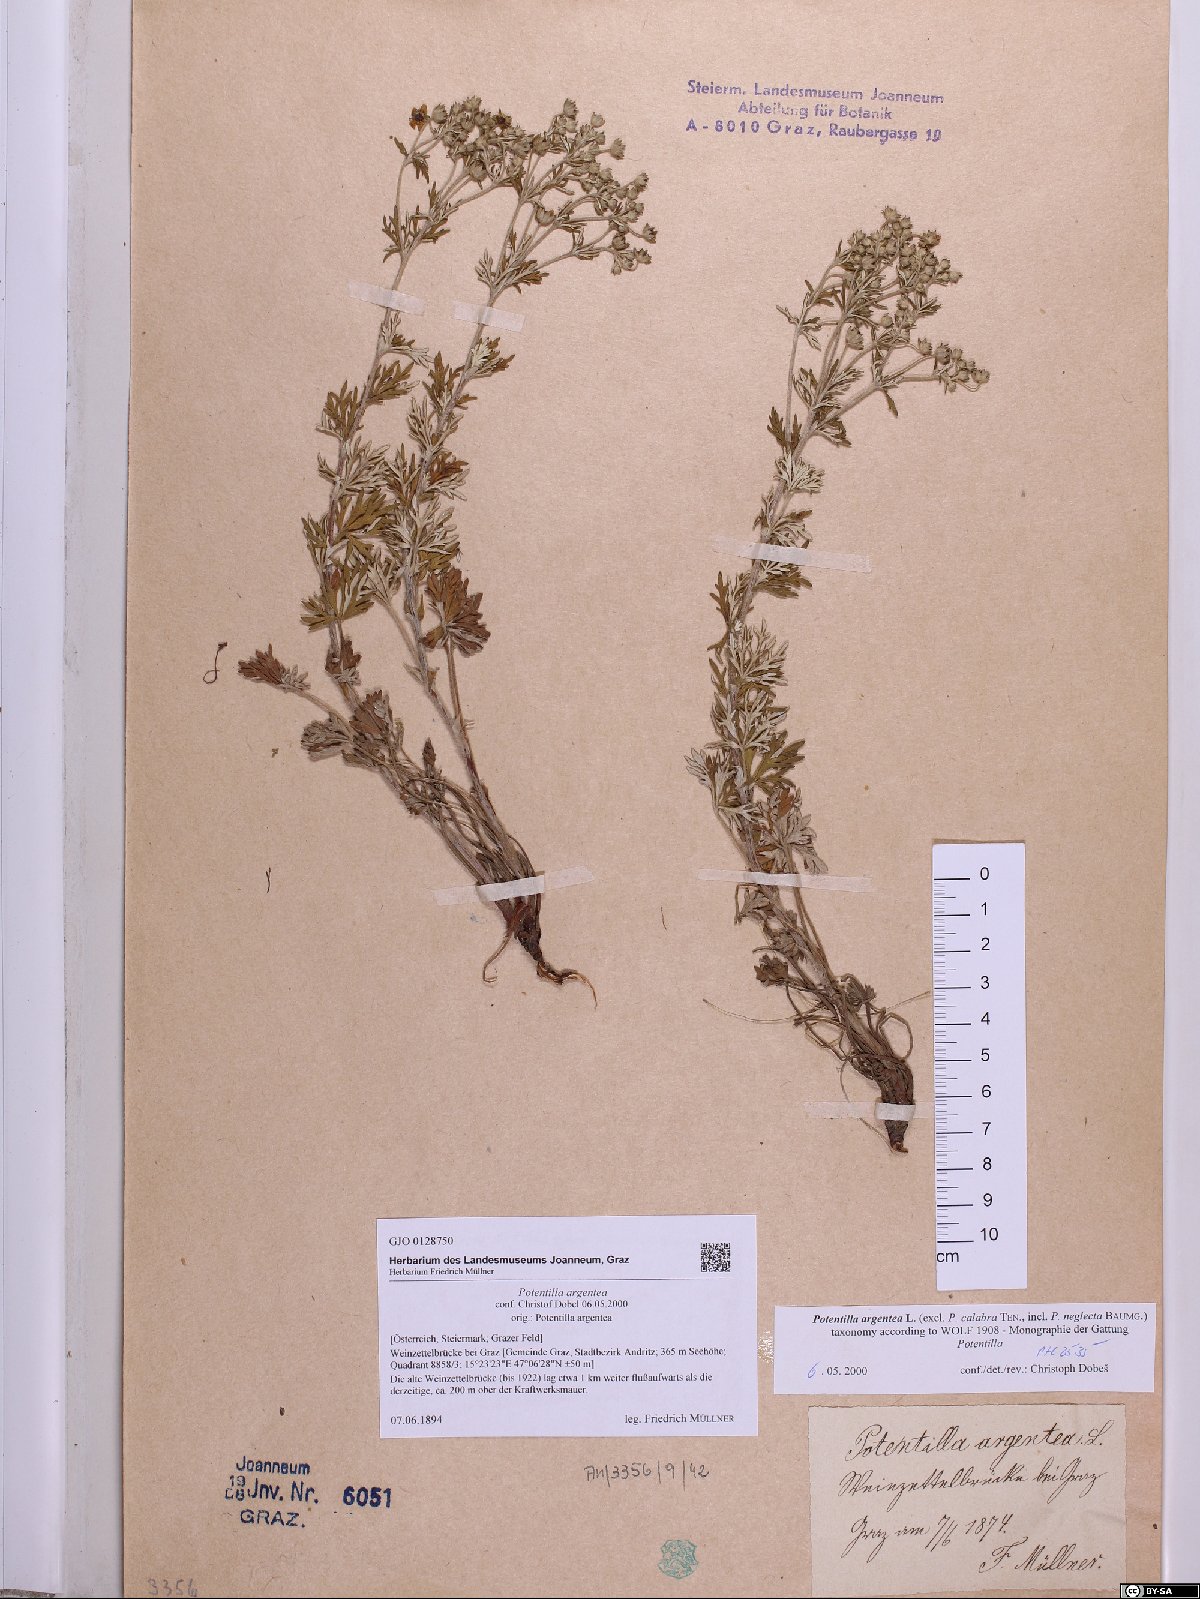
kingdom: Plantae
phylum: Tracheophyta
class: Magnoliopsida
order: Rosales
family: Rosaceae
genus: Potentilla
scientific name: Potentilla argentea
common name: Hoary cinquefoil
